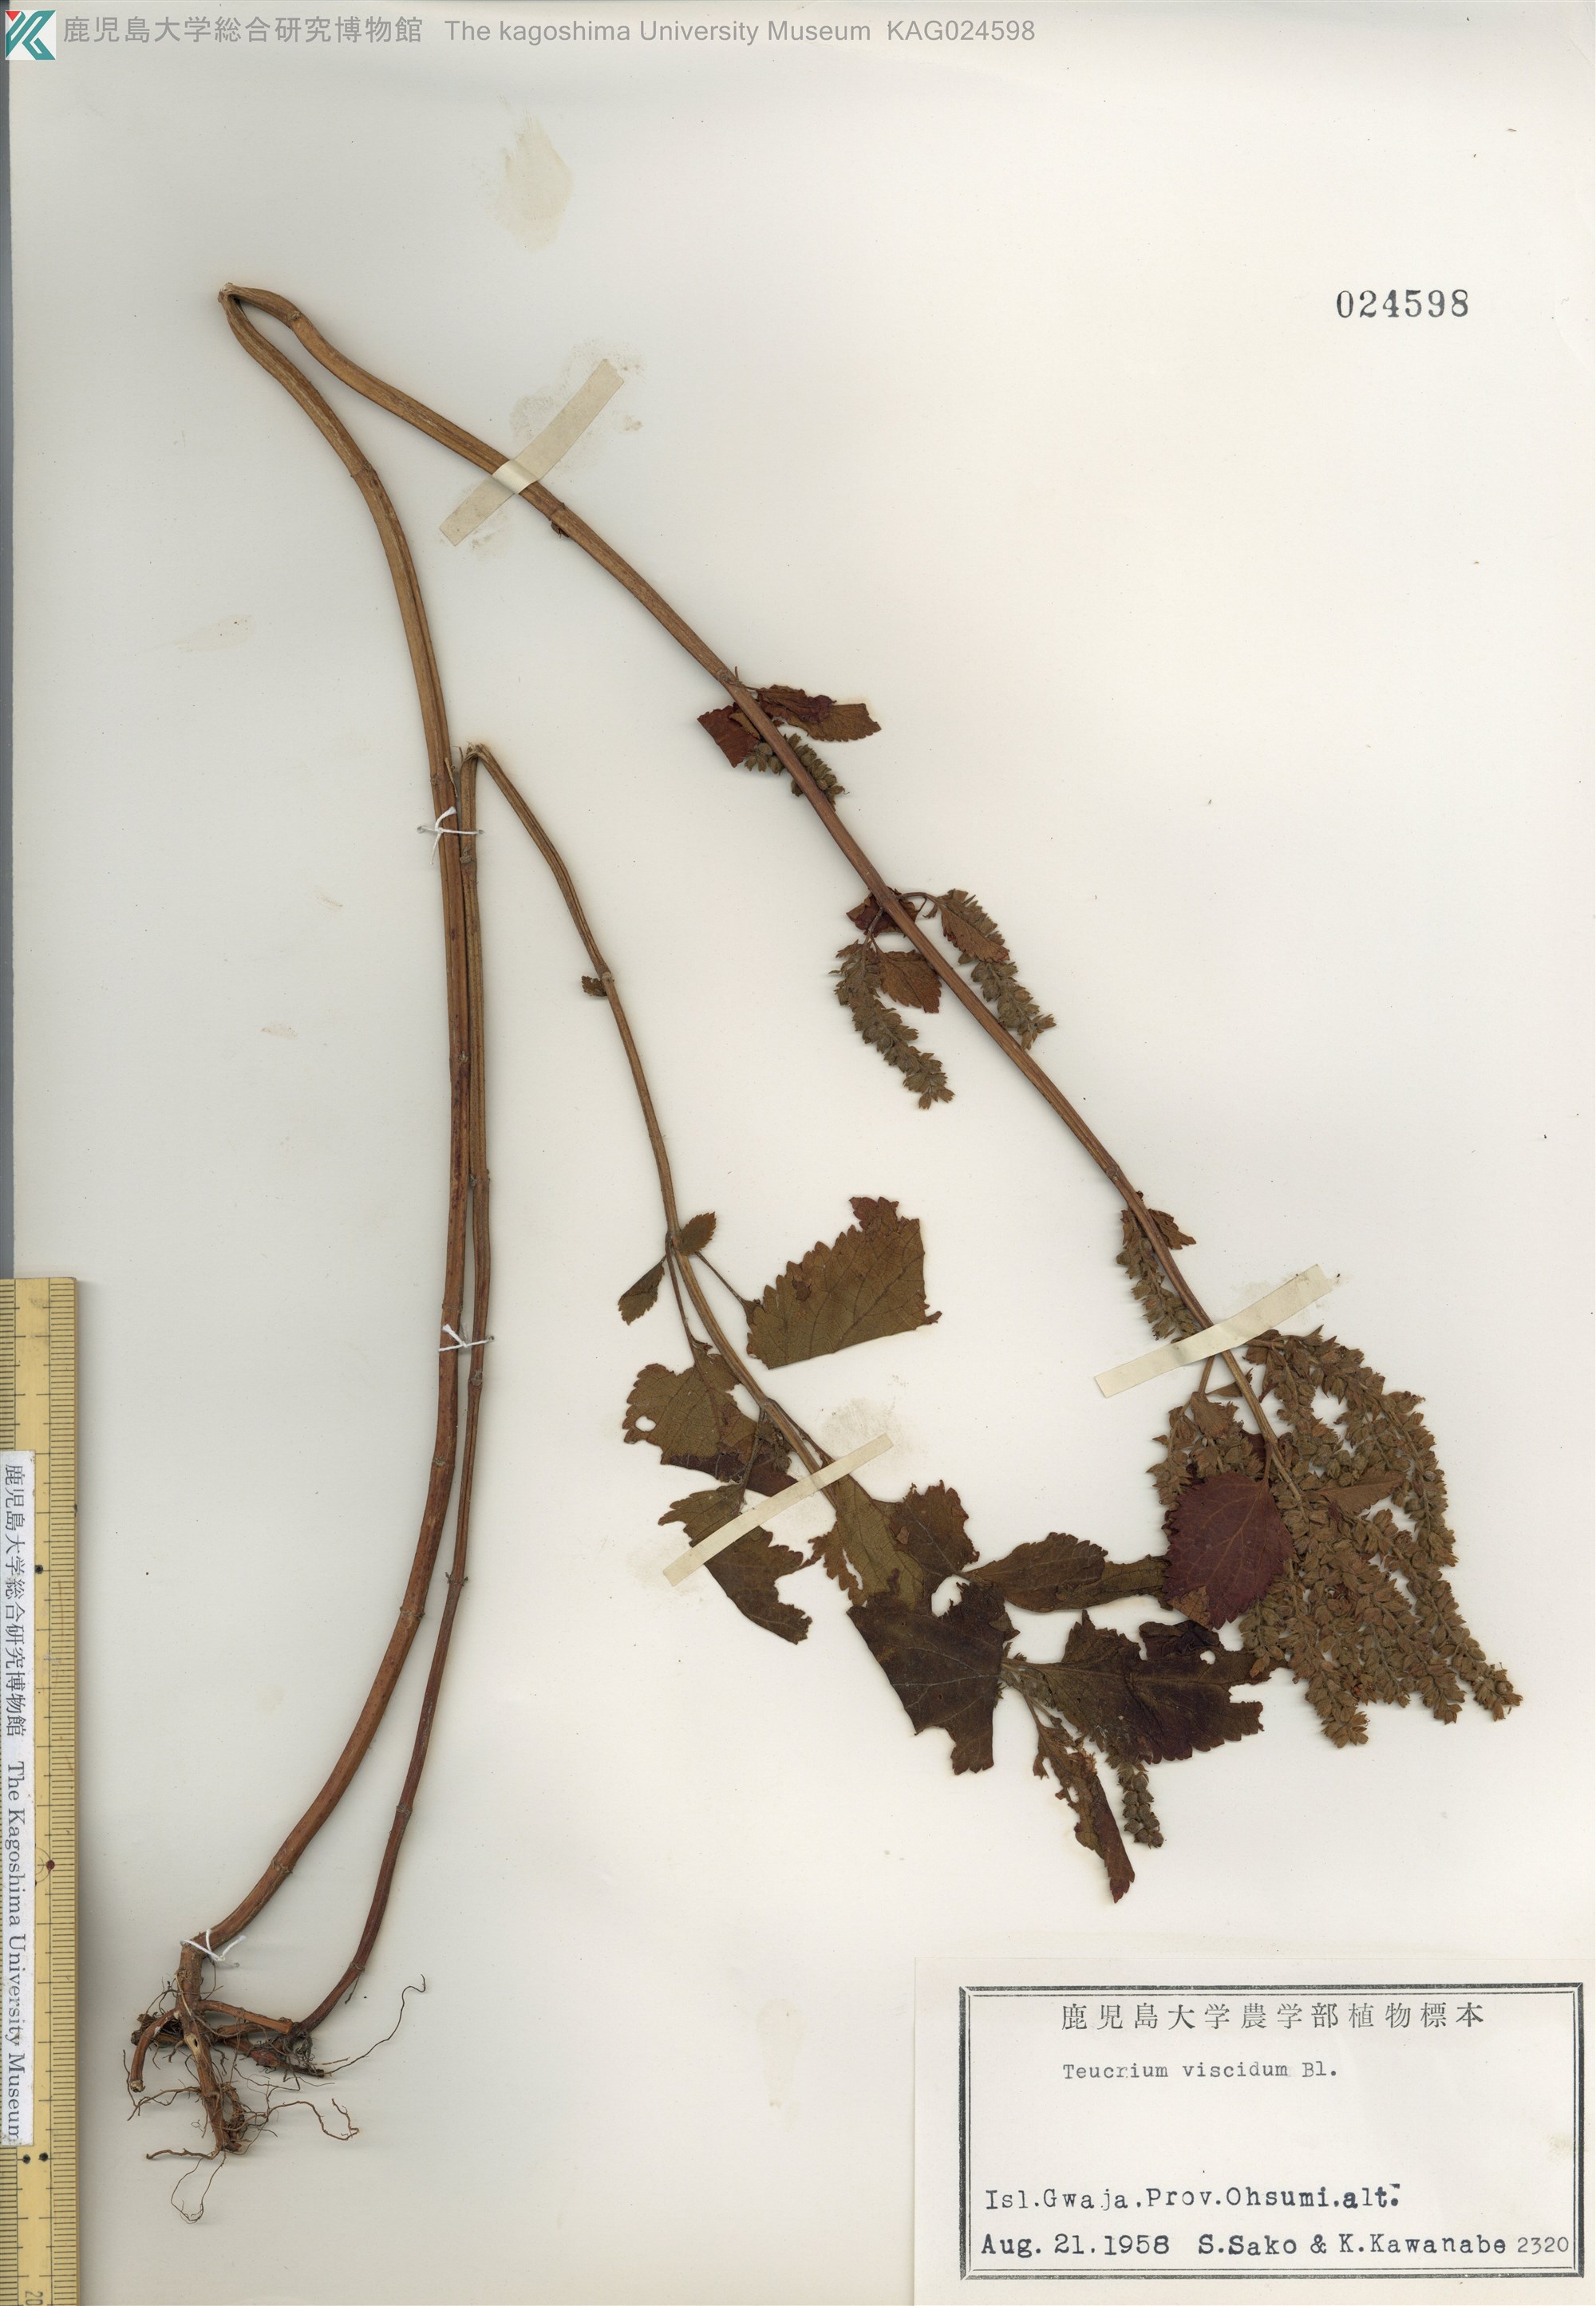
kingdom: Plantae
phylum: Tracheophyta
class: Magnoliopsida
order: Lamiales
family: Lamiaceae
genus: Teucrium
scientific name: Teucrium viscidum
